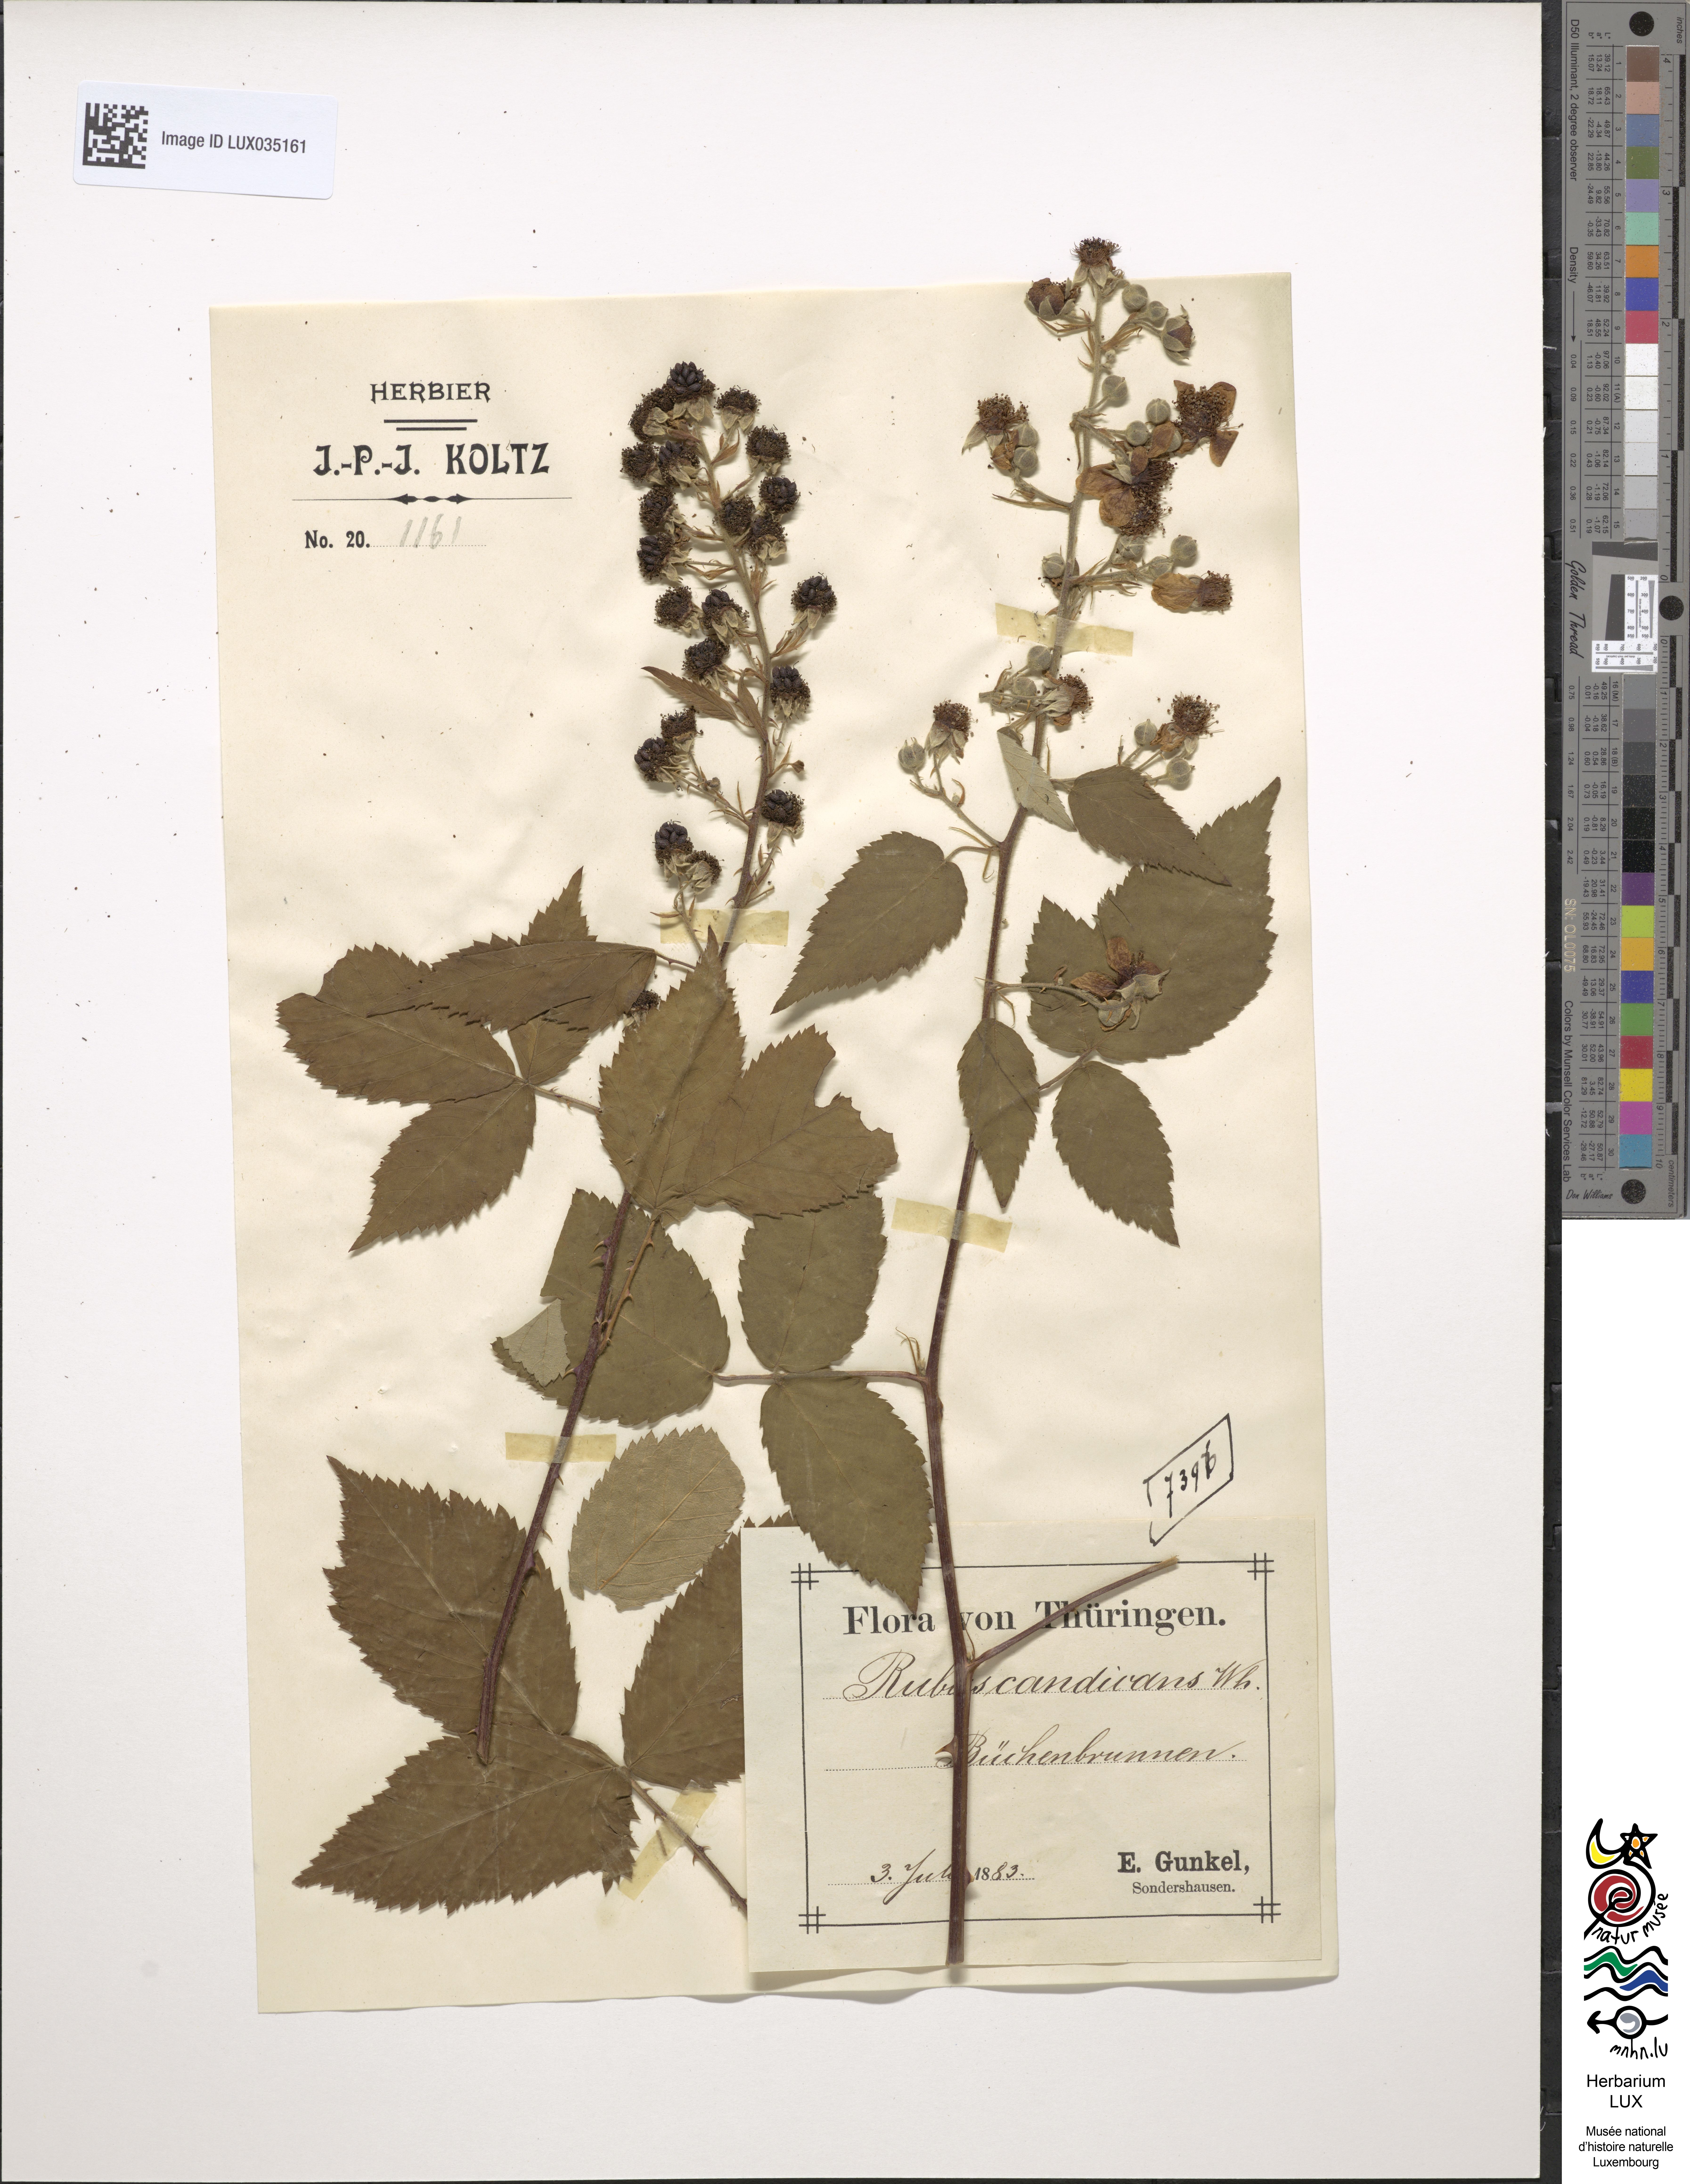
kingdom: Plantae
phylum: Tracheophyta
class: Magnoliopsida
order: Rosales
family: Rosaceae
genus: Rubus
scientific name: Rubus silesiacus
